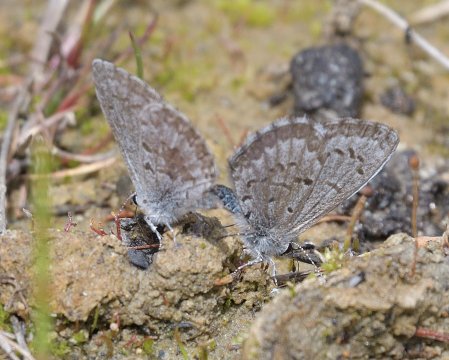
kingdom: Animalia
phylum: Arthropoda
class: Insecta
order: Lepidoptera
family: Lycaenidae
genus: Celastrina
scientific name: Celastrina lucia
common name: Northern Spring Azure
